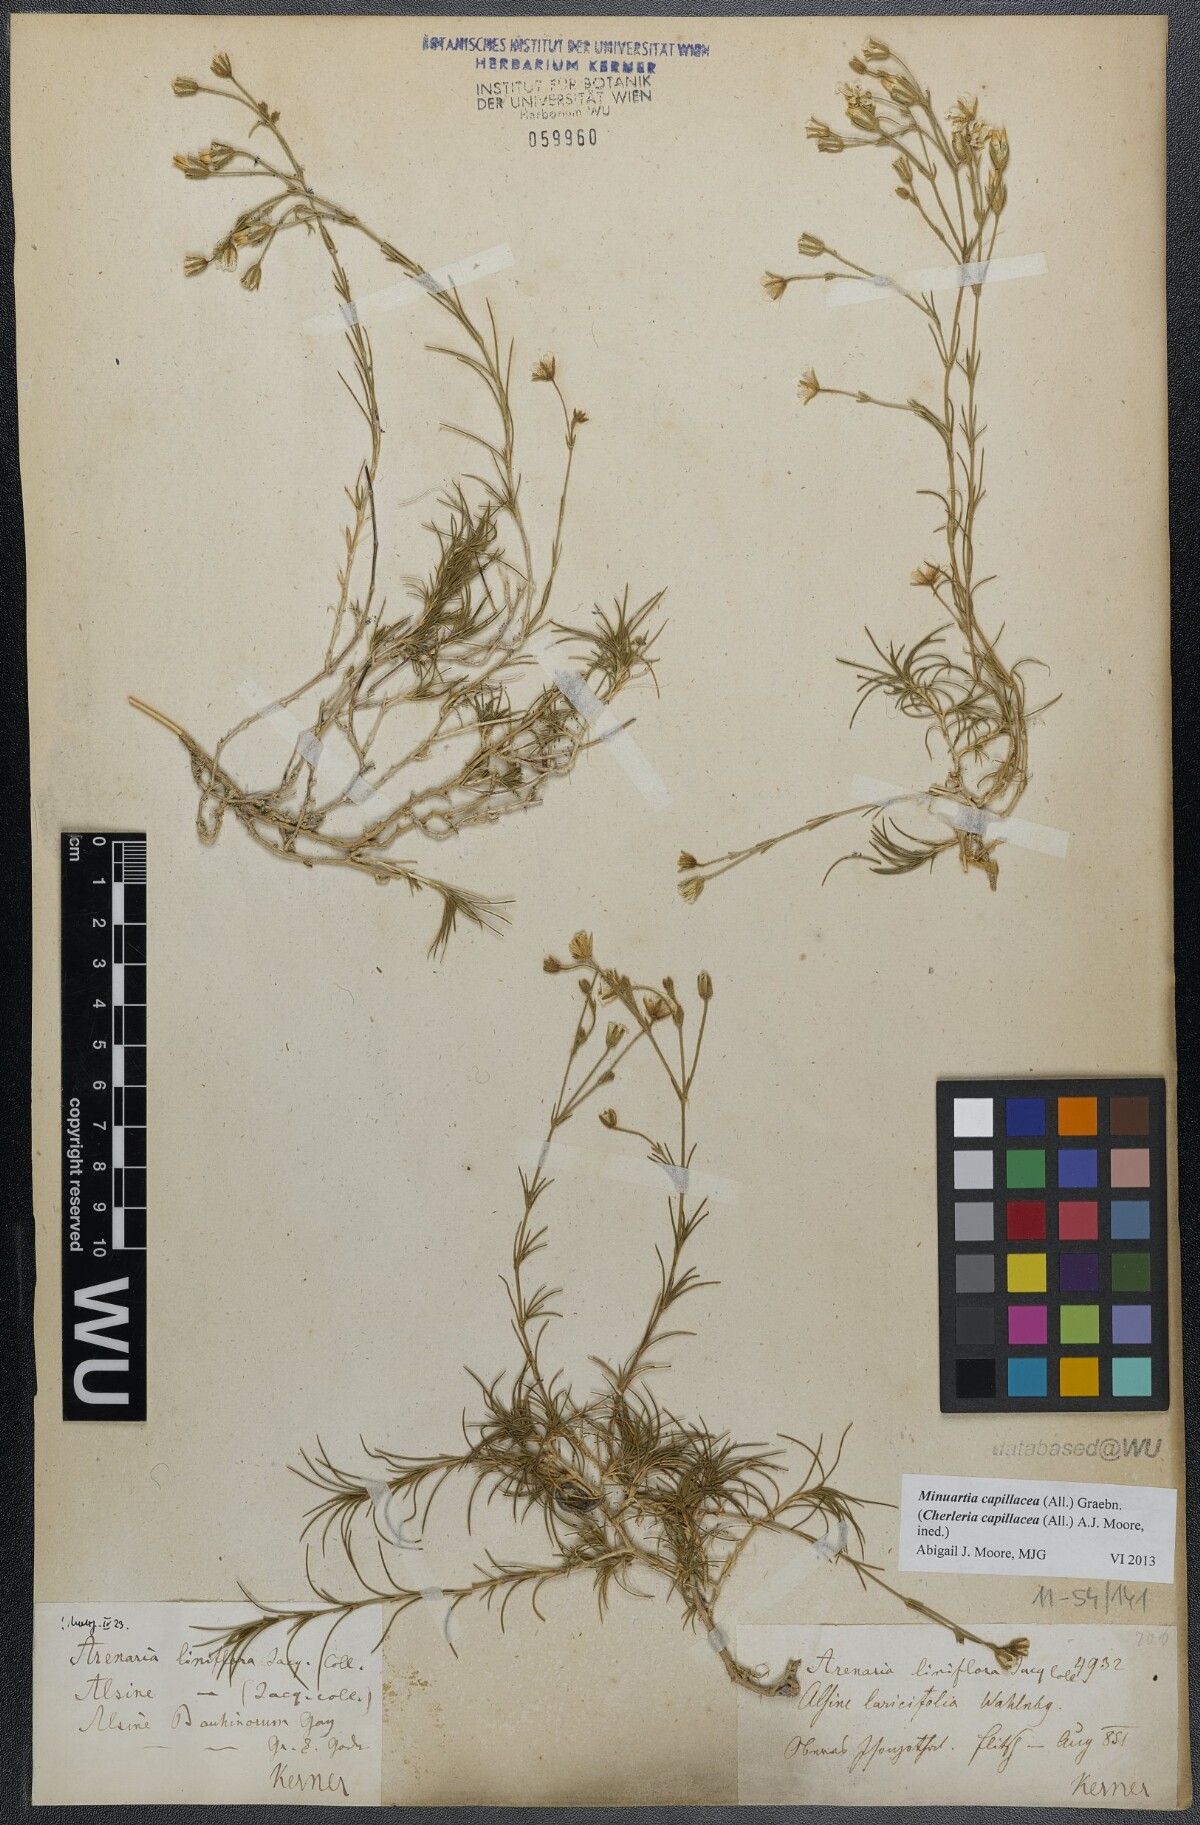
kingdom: Plantae
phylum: Tracheophyta
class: Magnoliopsida
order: Caryophyllales
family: Caryophyllaceae
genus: Cherleria
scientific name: Cherleria capillacea
